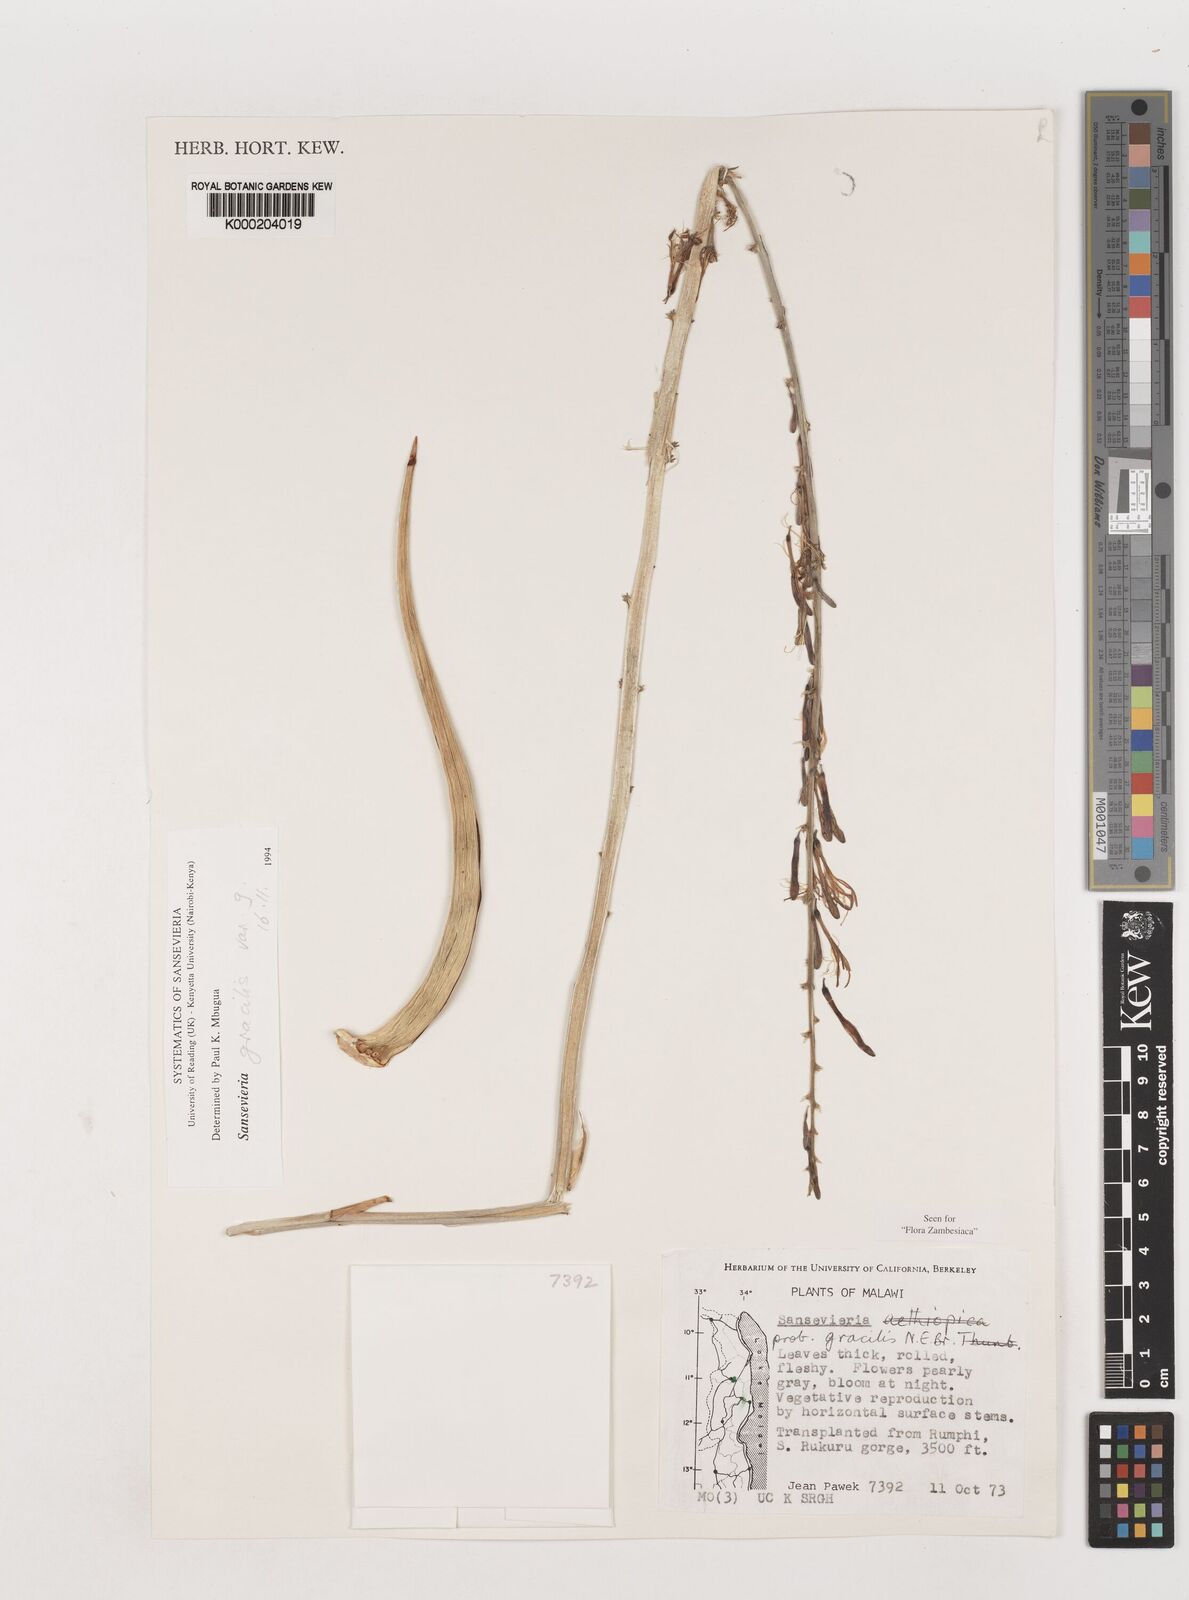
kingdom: Plantae
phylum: Tracheophyta
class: Liliopsida
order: Asparagales
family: Asparagaceae
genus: Dracaena
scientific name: Dracaena downsii
